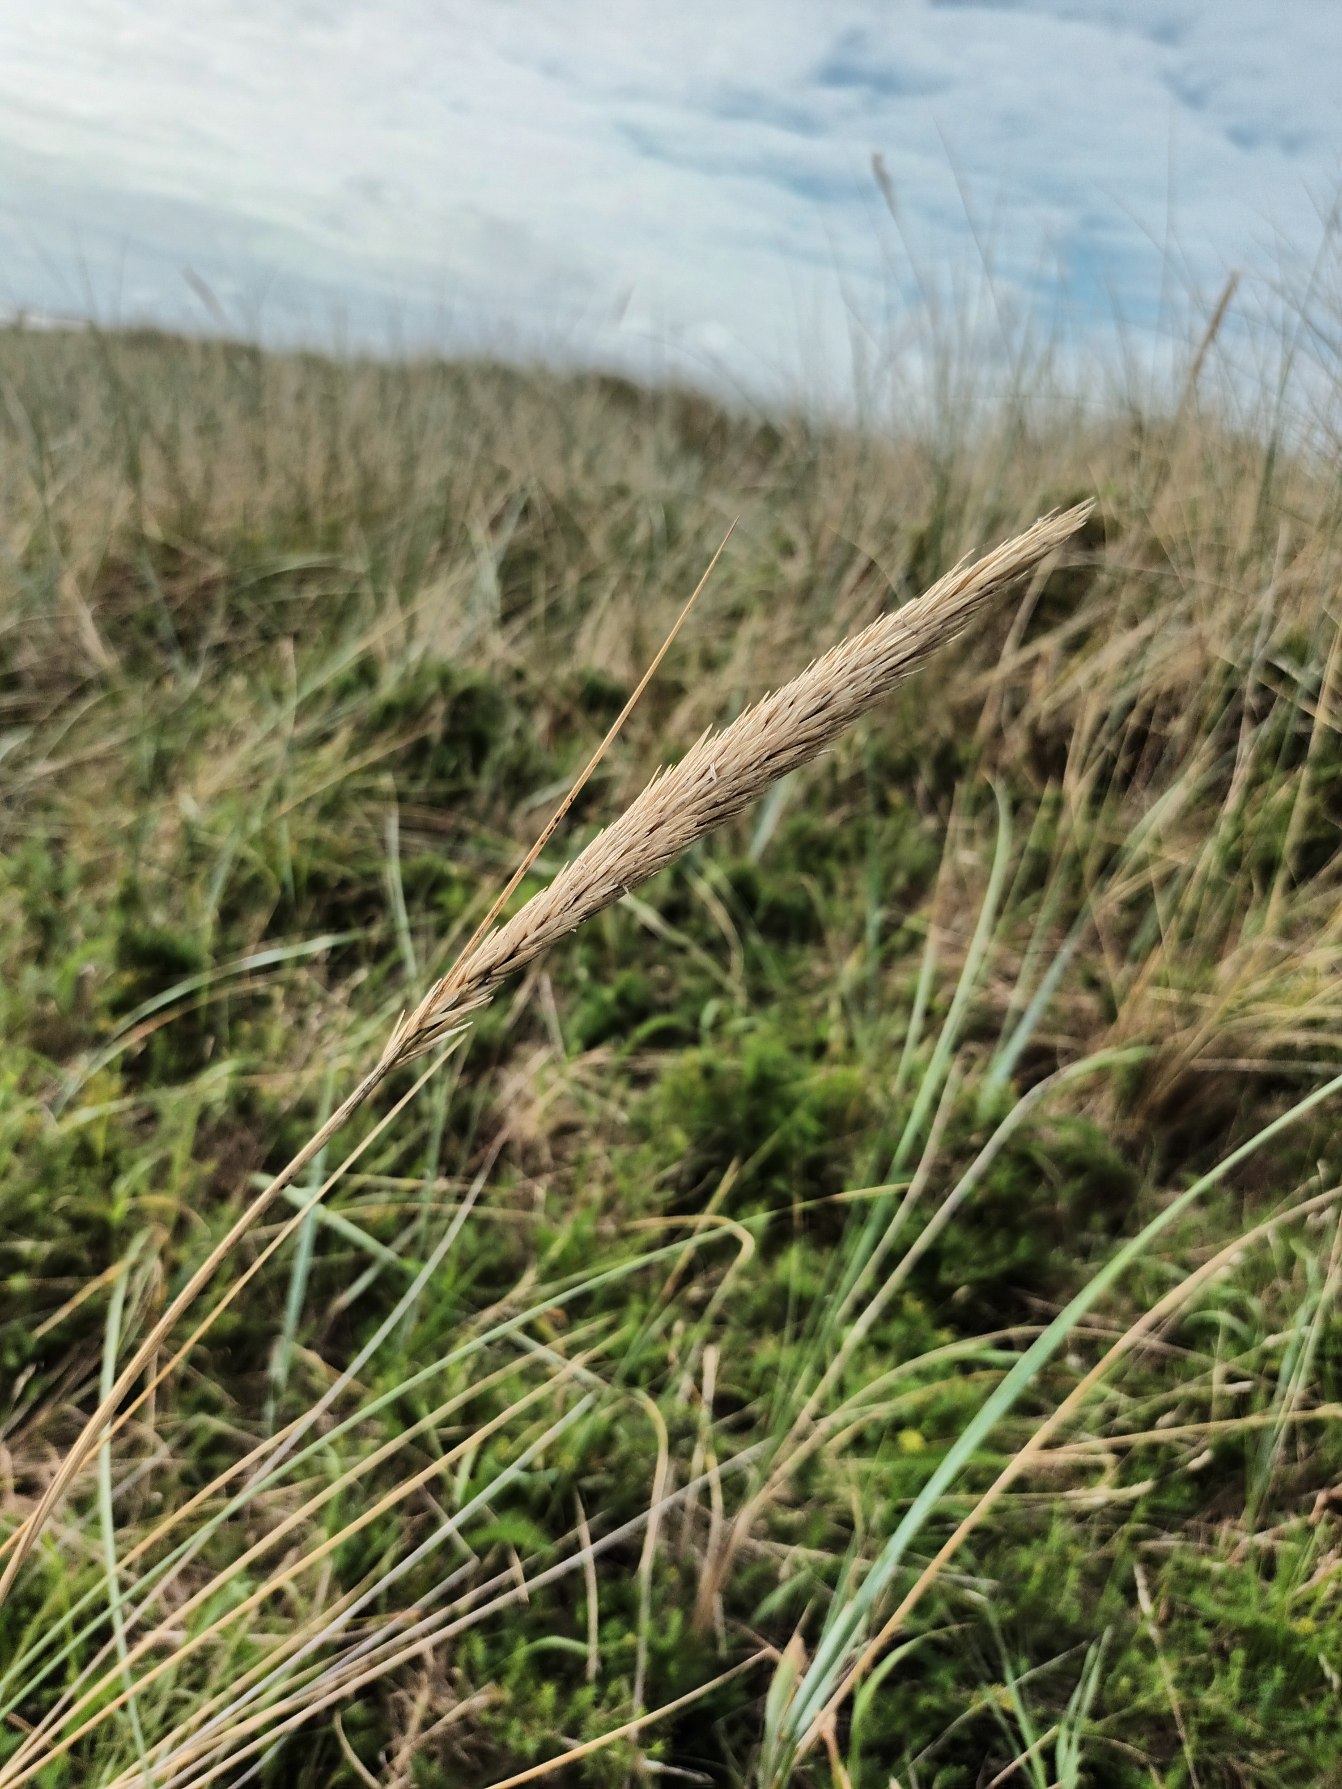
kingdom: Plantae
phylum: Tracheophyta
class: Liliopsida
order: Poales
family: Poaceae
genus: Calamagrostis
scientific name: Calamagrostis arenaria
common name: Sand-hjælme
